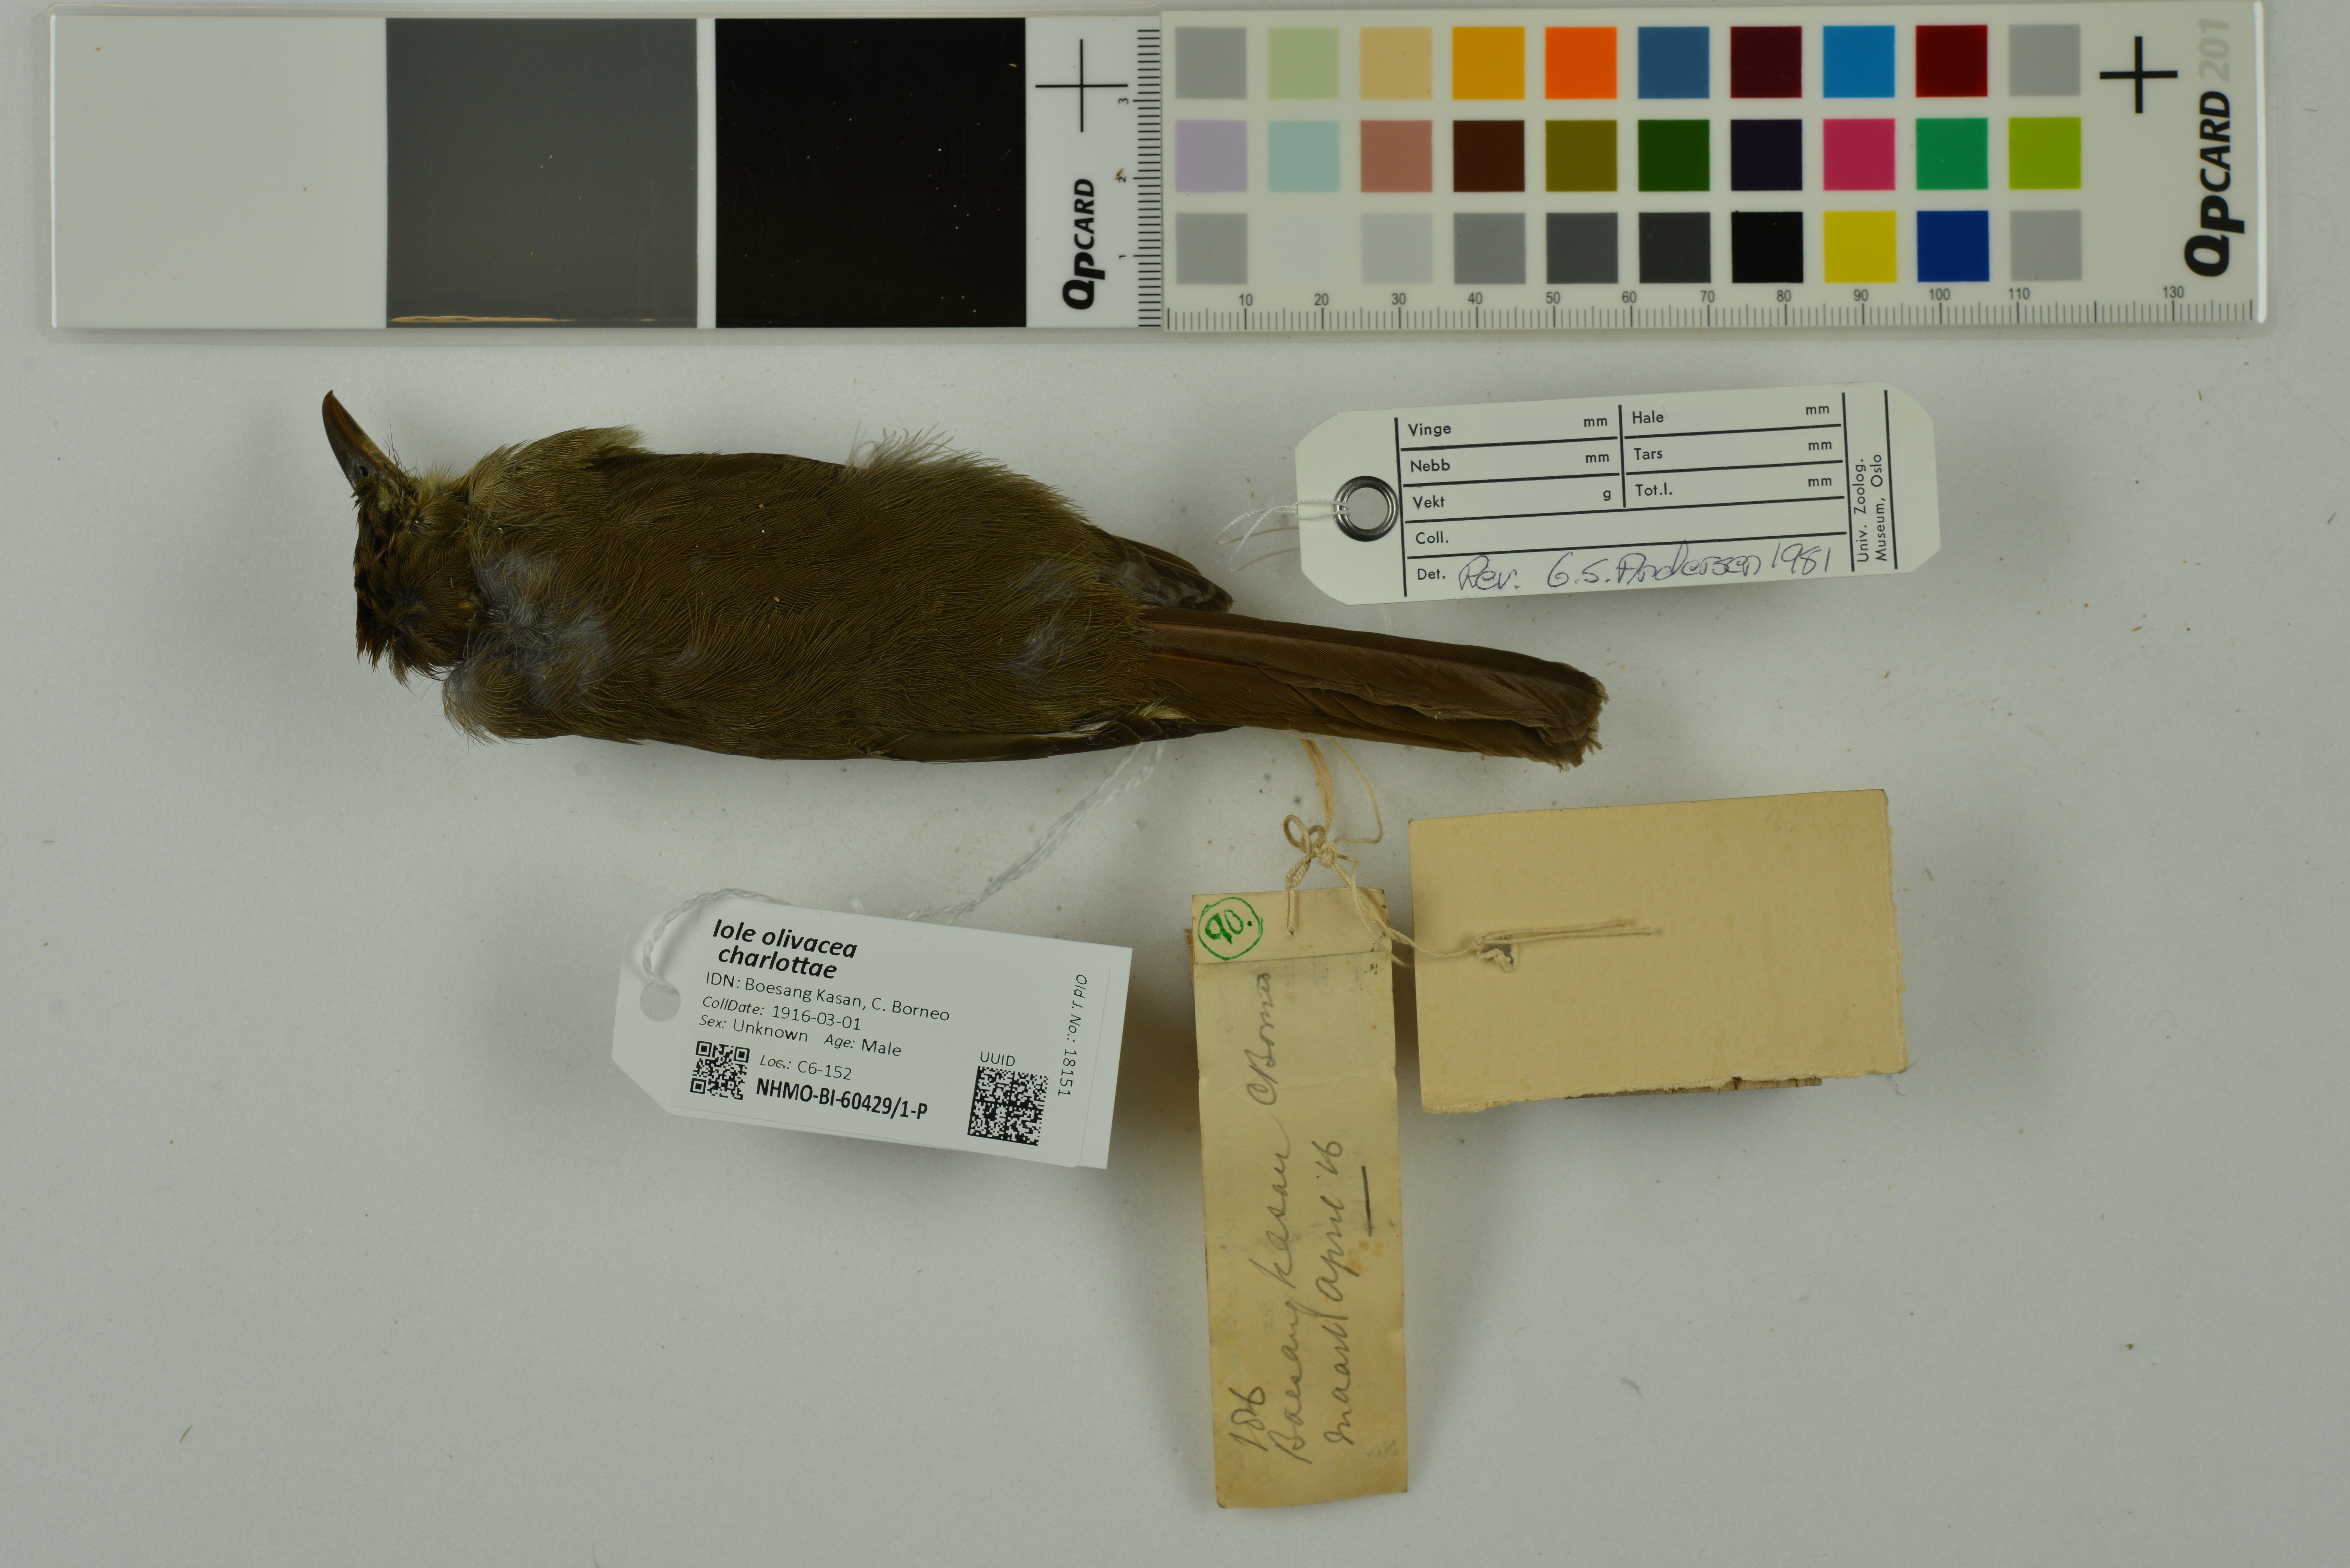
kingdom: Animalia
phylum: Chordata
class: Aves
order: Passeriformes
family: Pycnonotidae
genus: Iole
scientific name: Iole olivacea
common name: Buff-vented bulbul
